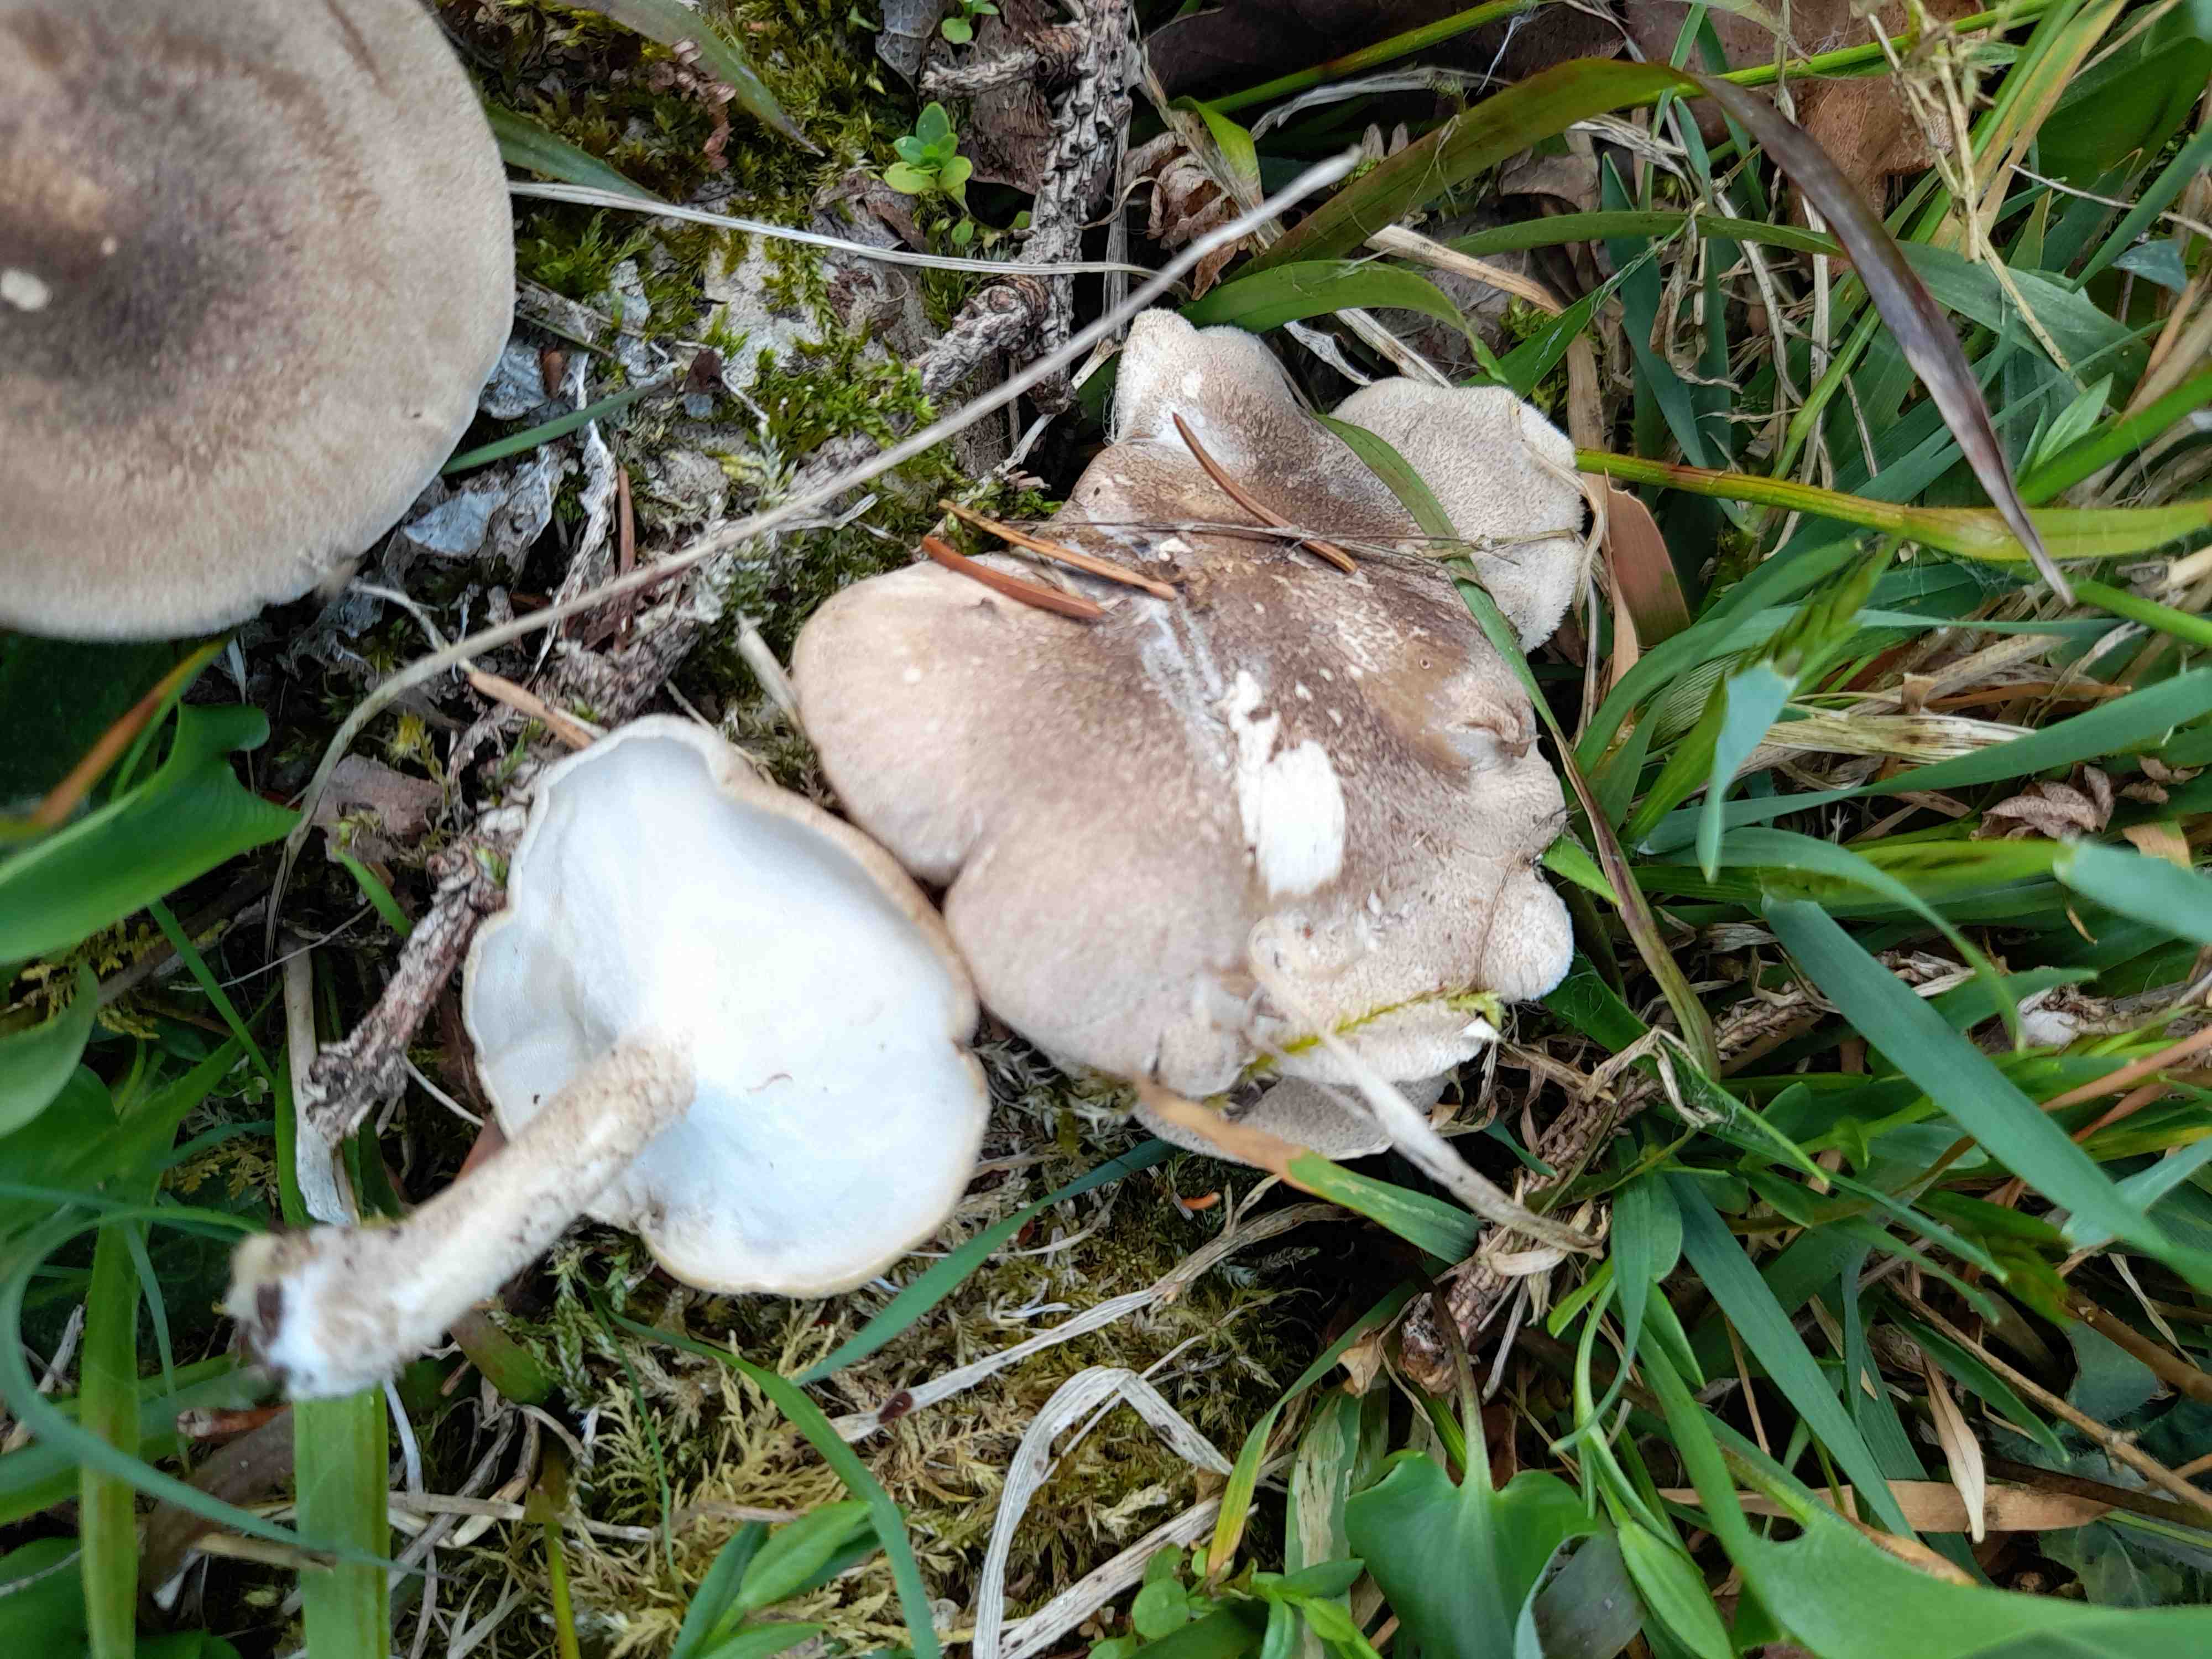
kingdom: Fungi
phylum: Basidiomycota
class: Agaricomycetes
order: Polyporales
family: Polyporaceae
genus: Lentinus
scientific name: Lentinus substrictus
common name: forårs-stilkporesvamp
